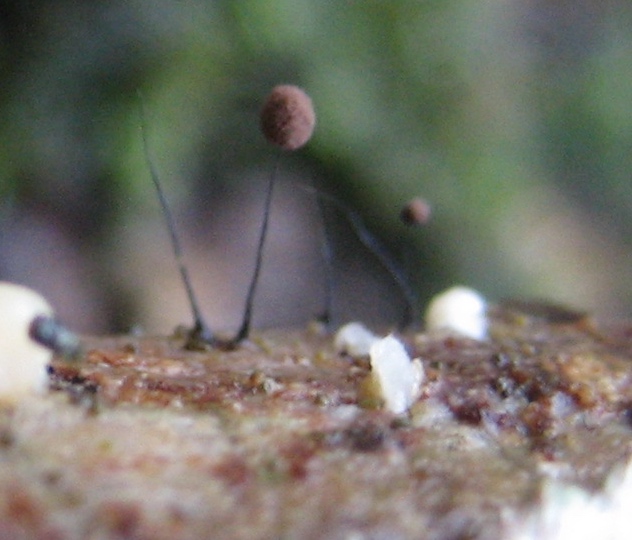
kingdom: Protozoa
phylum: Mycetozoa
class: Myxomycetes
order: Stemonitidales
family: Stemonitidaceae
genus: Comatricha
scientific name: Comatricha
